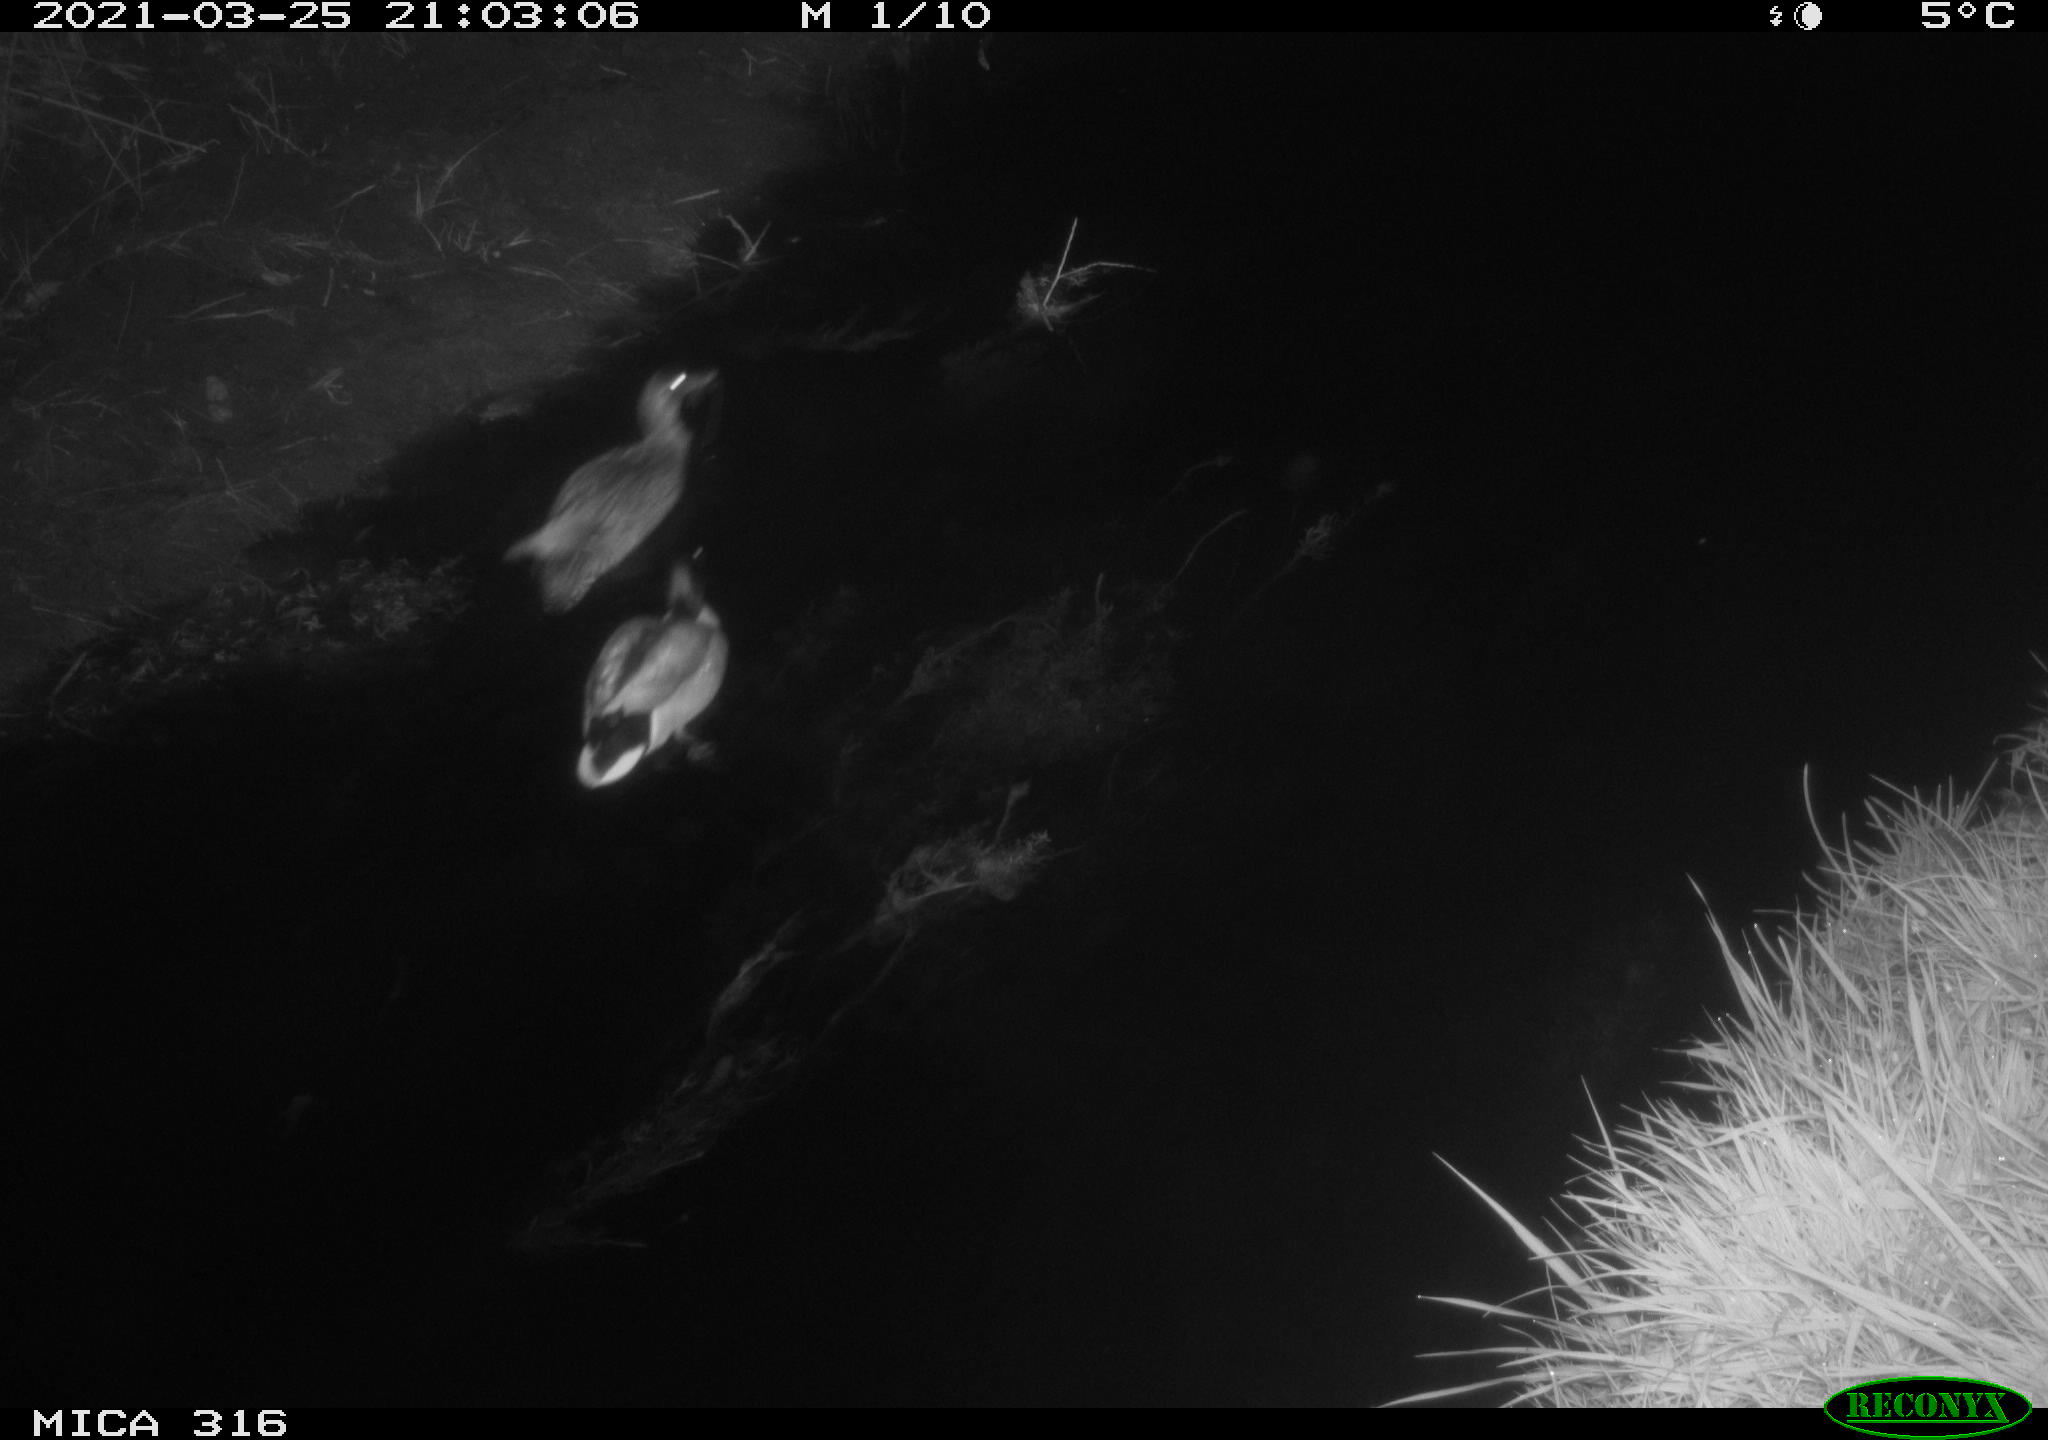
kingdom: Animalia
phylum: Chordata
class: Aves
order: Anseriformes
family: Anatidae
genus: Anas
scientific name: Anas platyrhynchos
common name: Mallard
